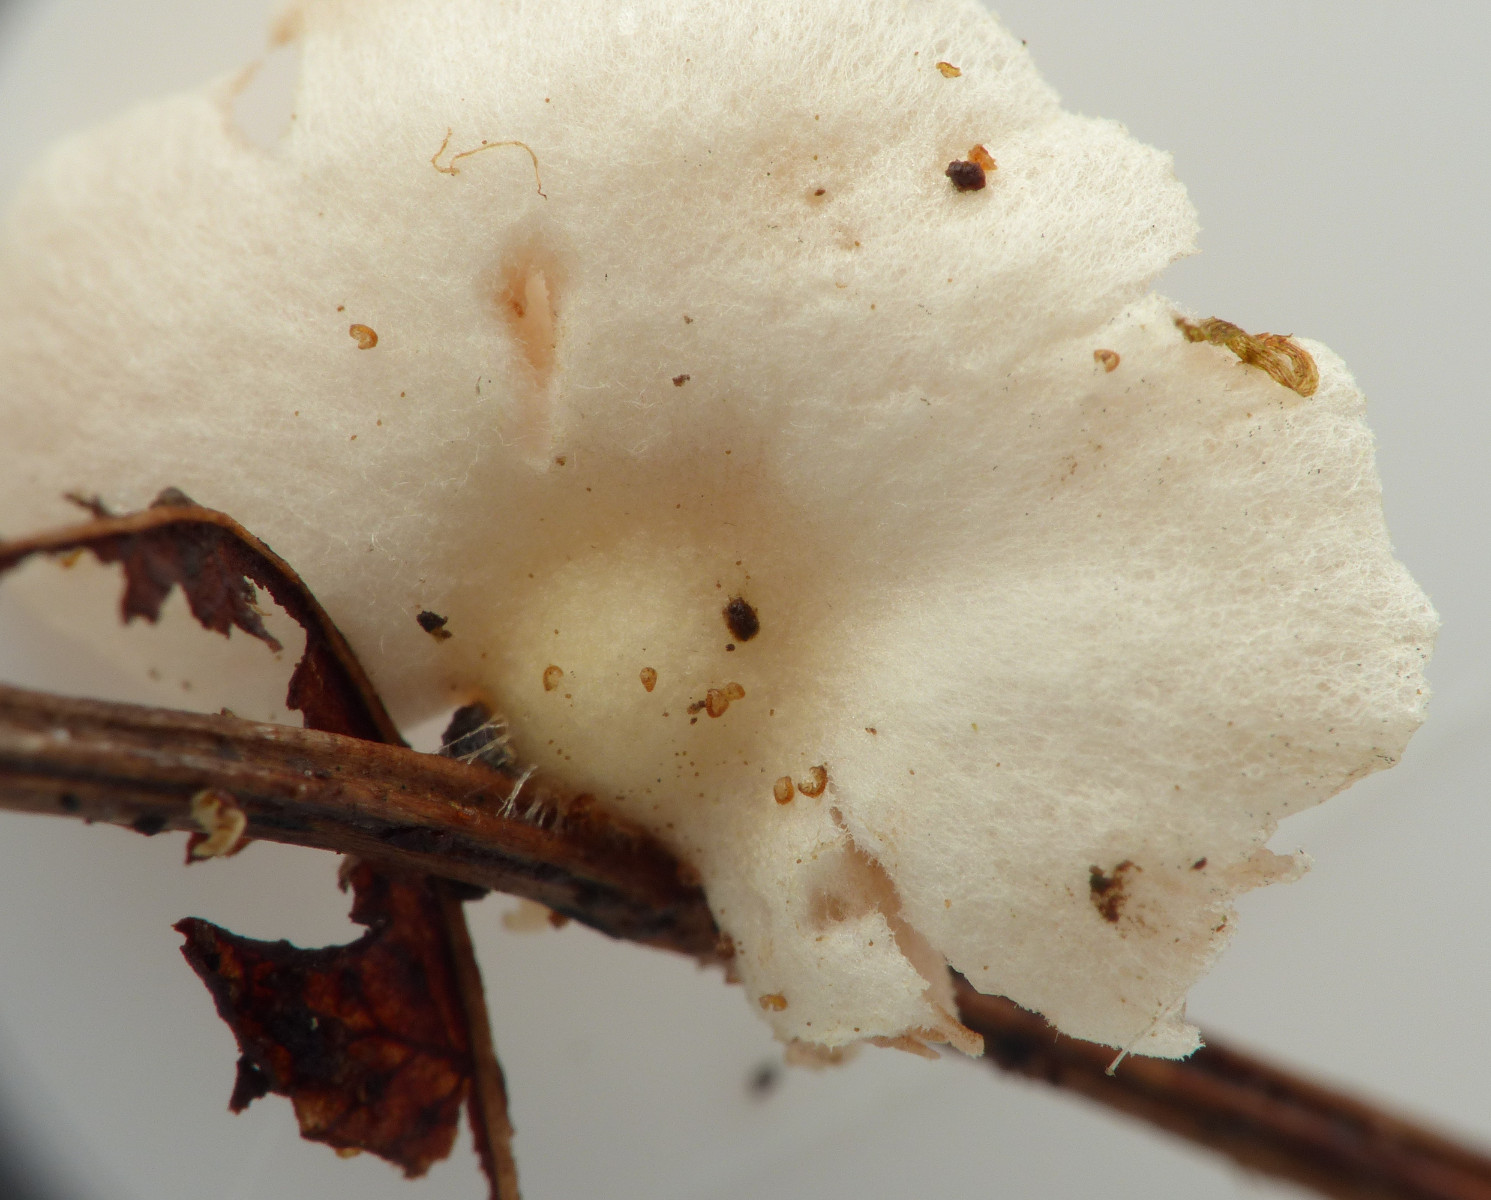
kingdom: Fungi
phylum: Basidiomycota
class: Agaricomycetes
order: Agaricales
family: Crepidotaceae
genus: Crepidotus
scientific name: Crepidotus luteolus
